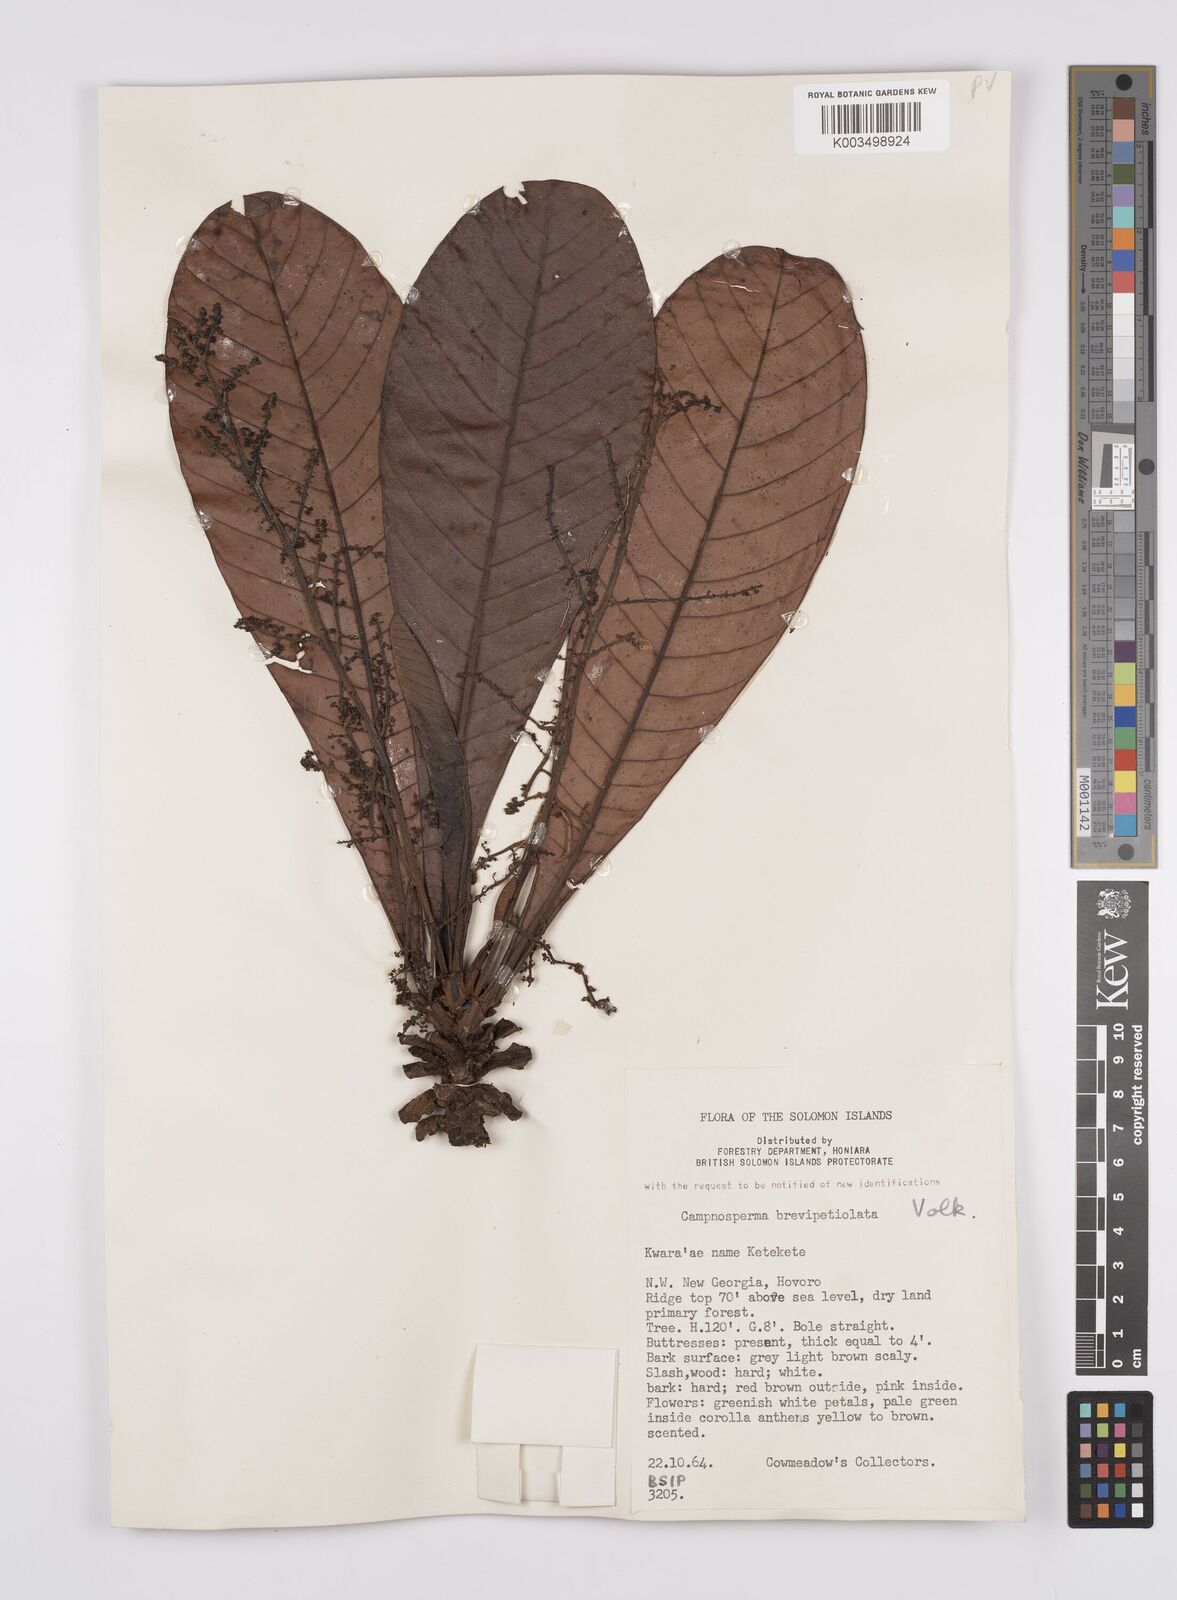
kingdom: Plantae
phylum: Tracheophyta
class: Magnoliopsida
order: Sapindales
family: Anacardiaceae
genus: Campnosperma
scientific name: Campnosperma brevipetiolatum
